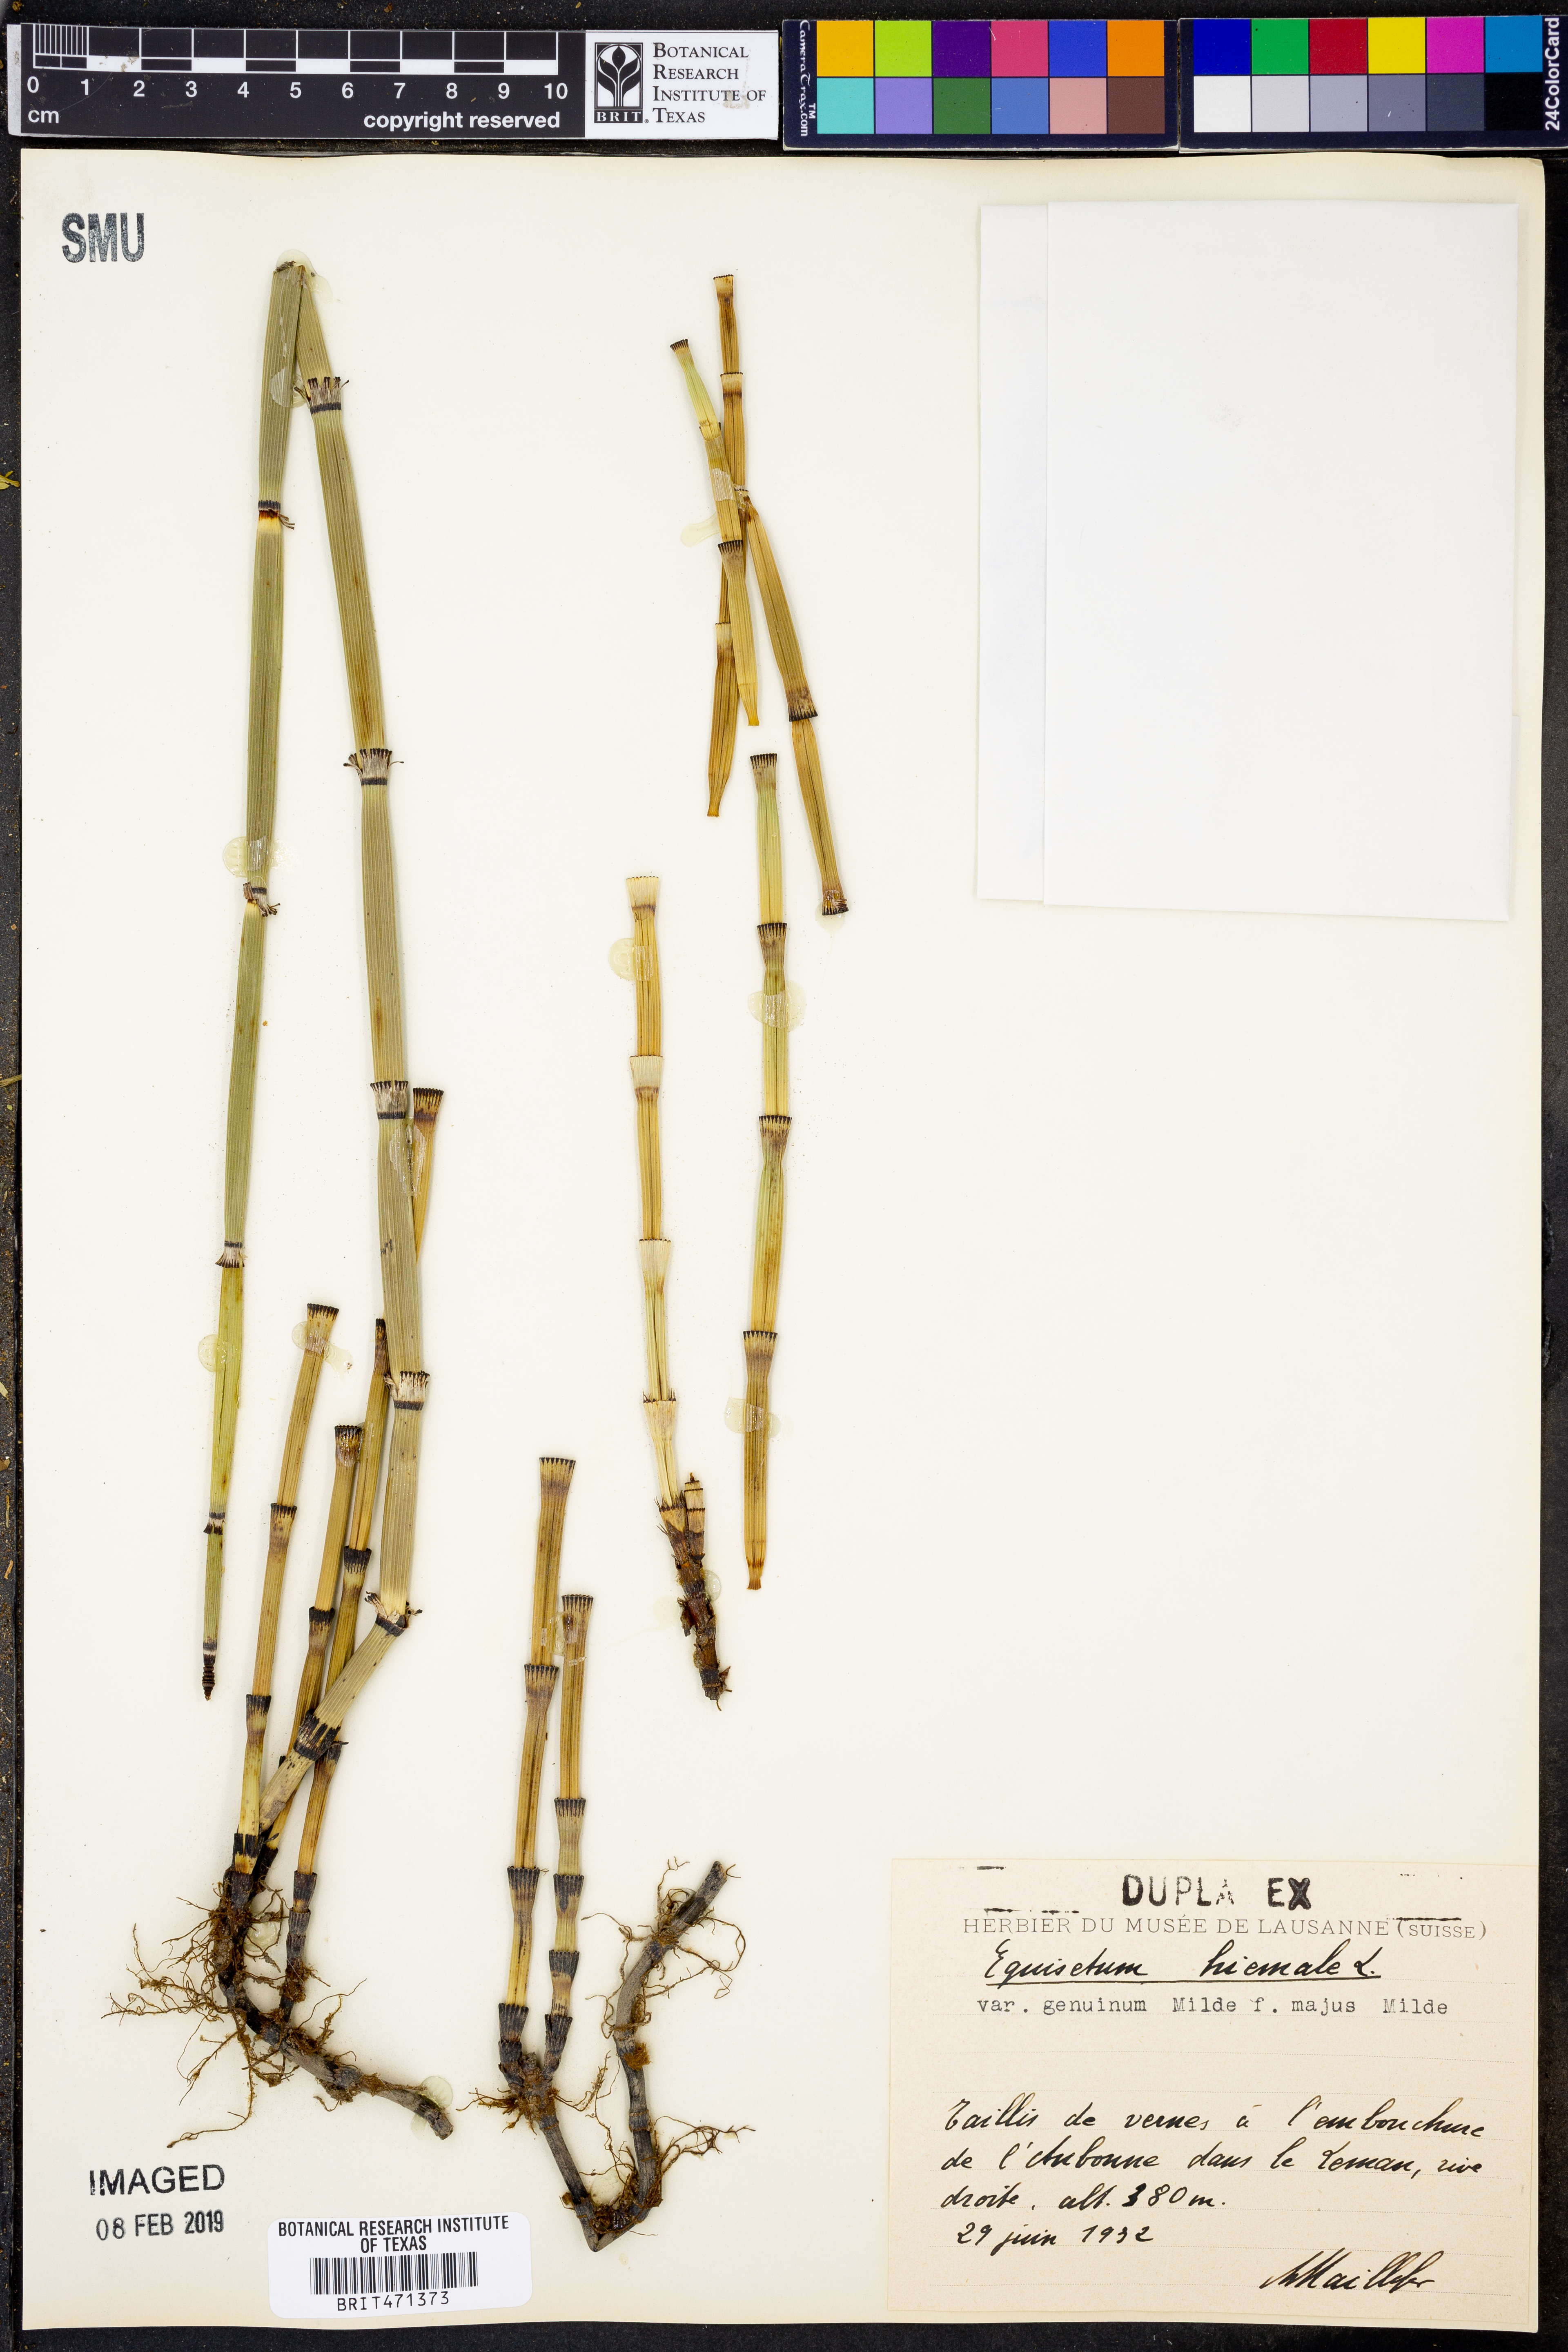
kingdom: Plantae
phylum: Tracheophyta
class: Polypodiopsida
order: Equisetales
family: Equisetaceae
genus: Equisetum
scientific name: Equisetum hyemale
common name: Rough horsetail
